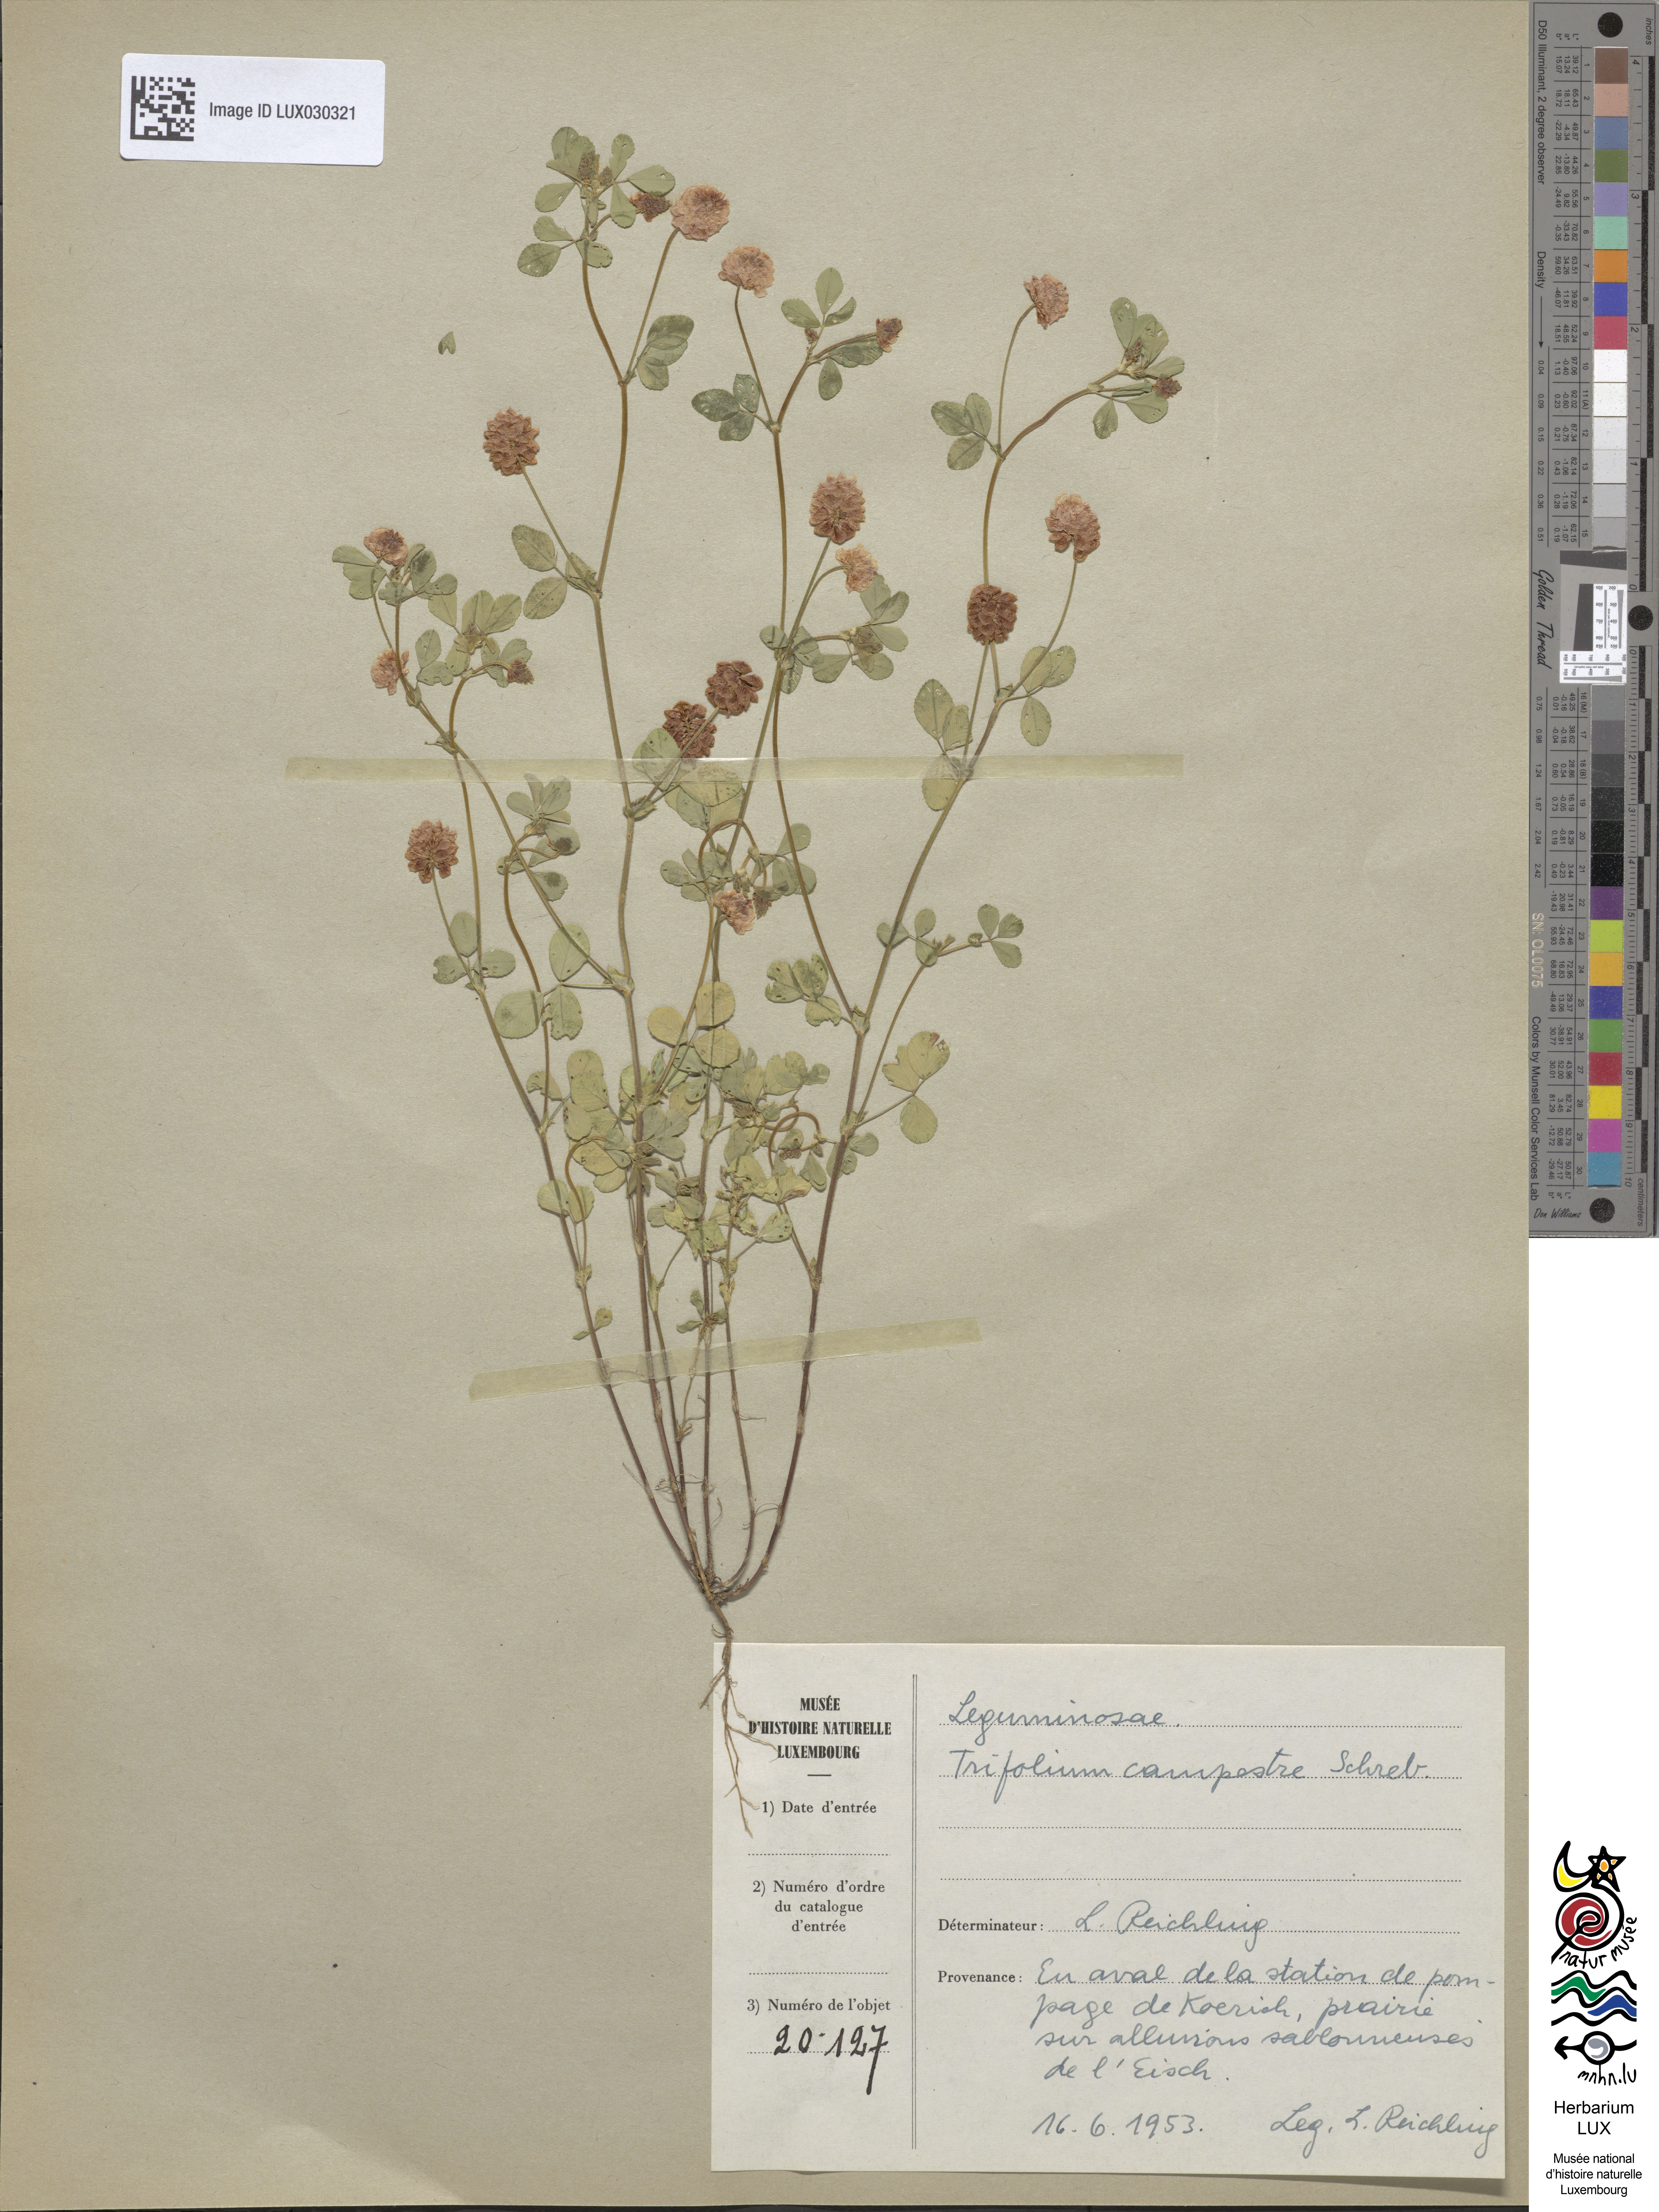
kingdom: Plantae
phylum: Tracheophyta
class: Magnoliopsida
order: Fabales
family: Fabaceae
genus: Trifolium
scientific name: Trifolium campestre
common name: Field clover
